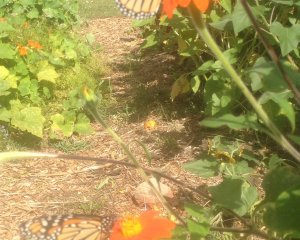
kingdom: Animalia
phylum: Arthropoda
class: Insecta
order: Lepidoptera
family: Nymphalidae
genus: Danaus
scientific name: Danaus plexippus
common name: Monarch
